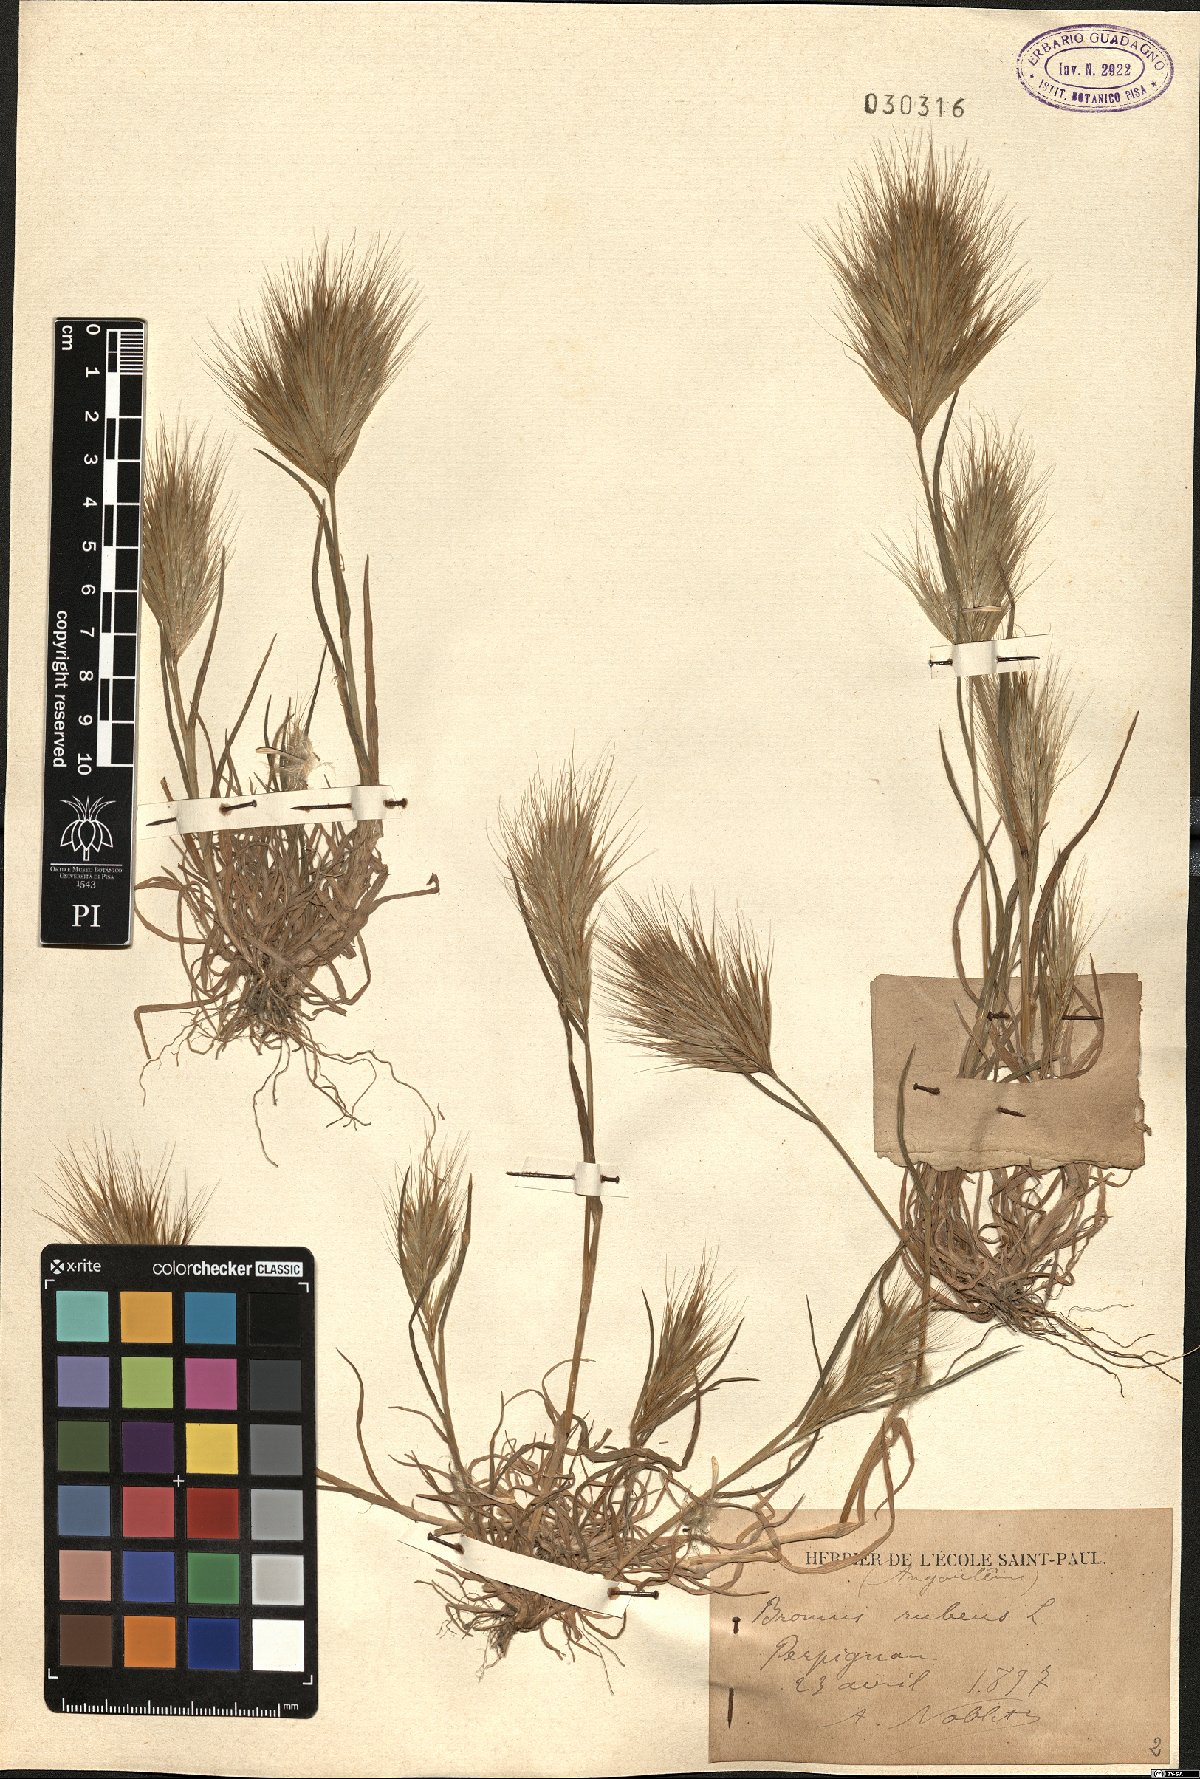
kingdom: Plantae
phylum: Tracheophyta
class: Liliopsida
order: Poales
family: Poaceae
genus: Bromus
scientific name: Bromus rubens
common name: Red brome
